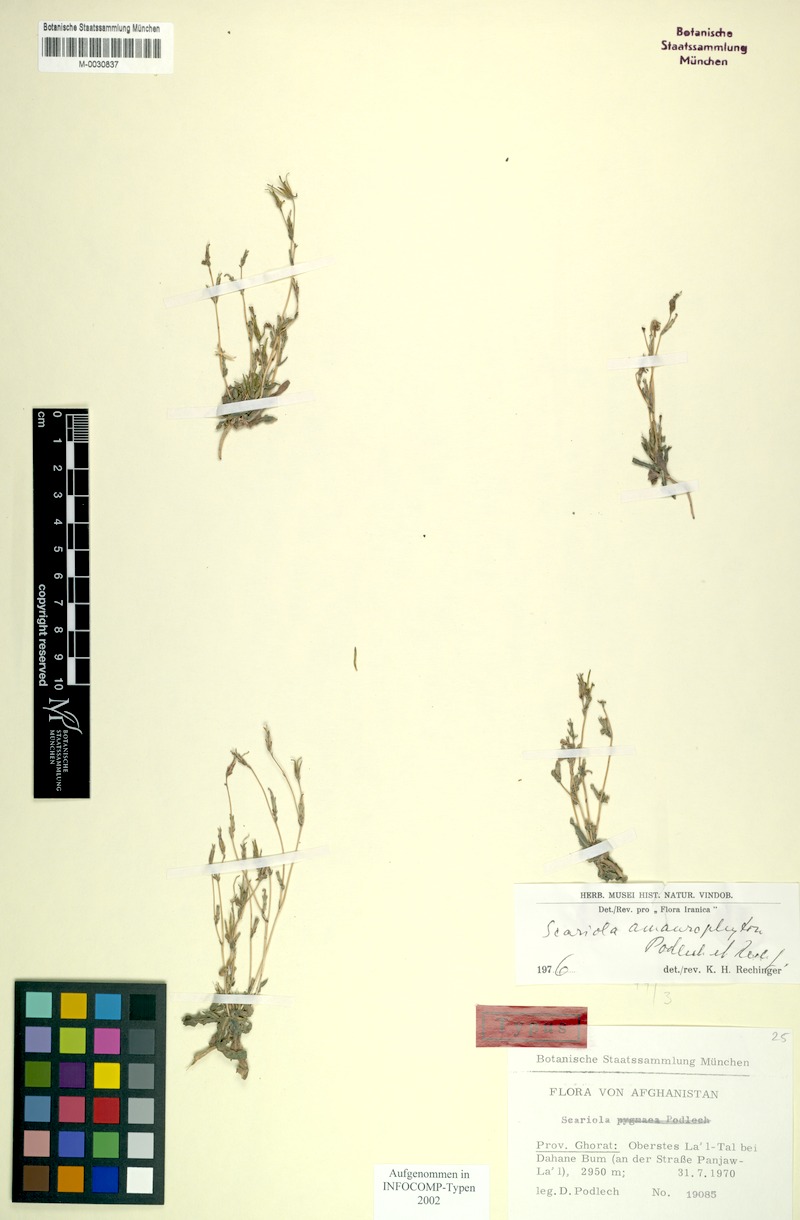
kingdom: Plantae
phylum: Tracheophyta
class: Magnoliopsida
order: Asterales
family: Asteraceae
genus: Lactuca
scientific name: Lactuca amaurophyton
